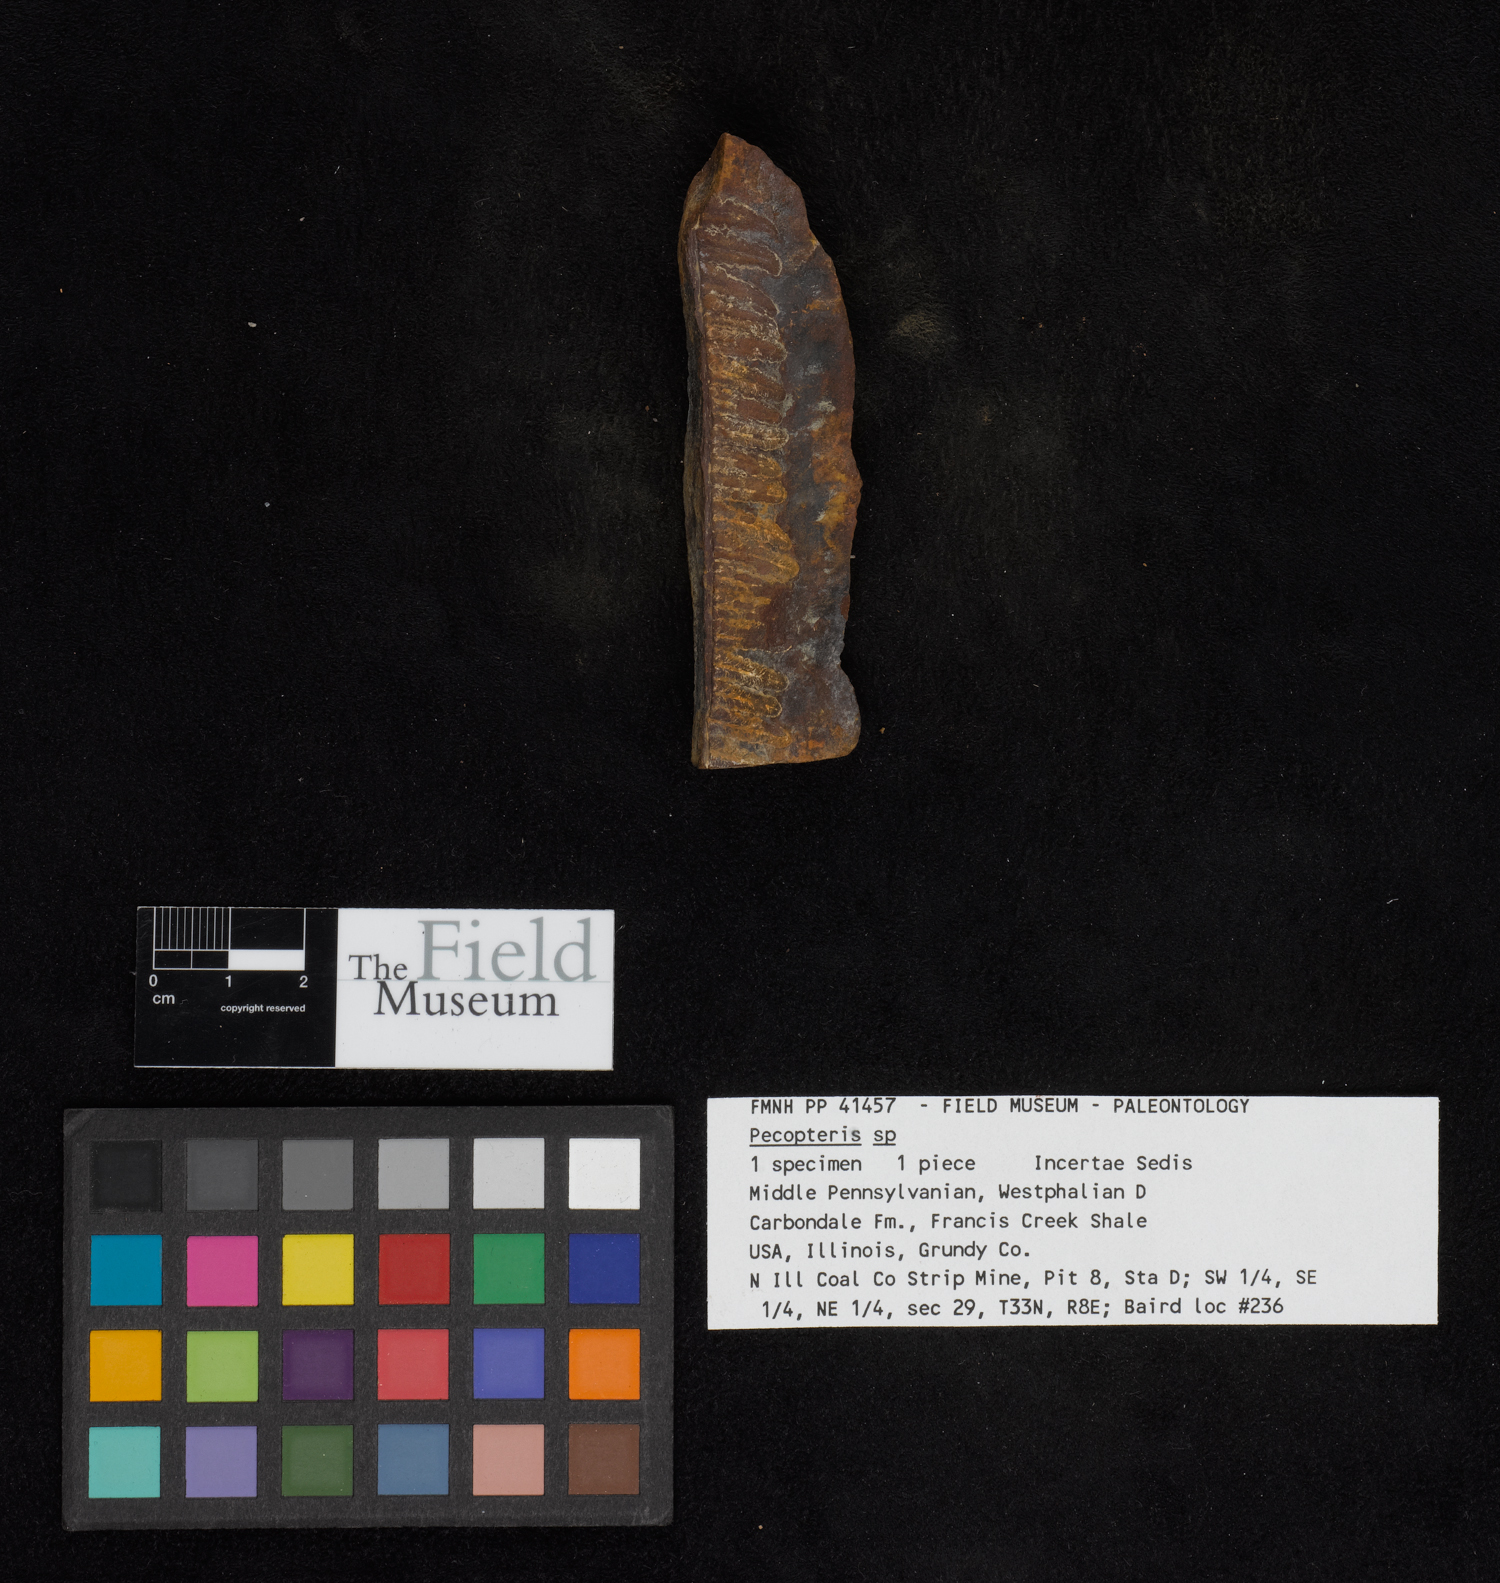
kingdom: Plantae
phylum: Tracheophyta
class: Polypodiopsida
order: Marattiales
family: Asterothecaceae
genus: Pecopteris
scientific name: Pecopteris
